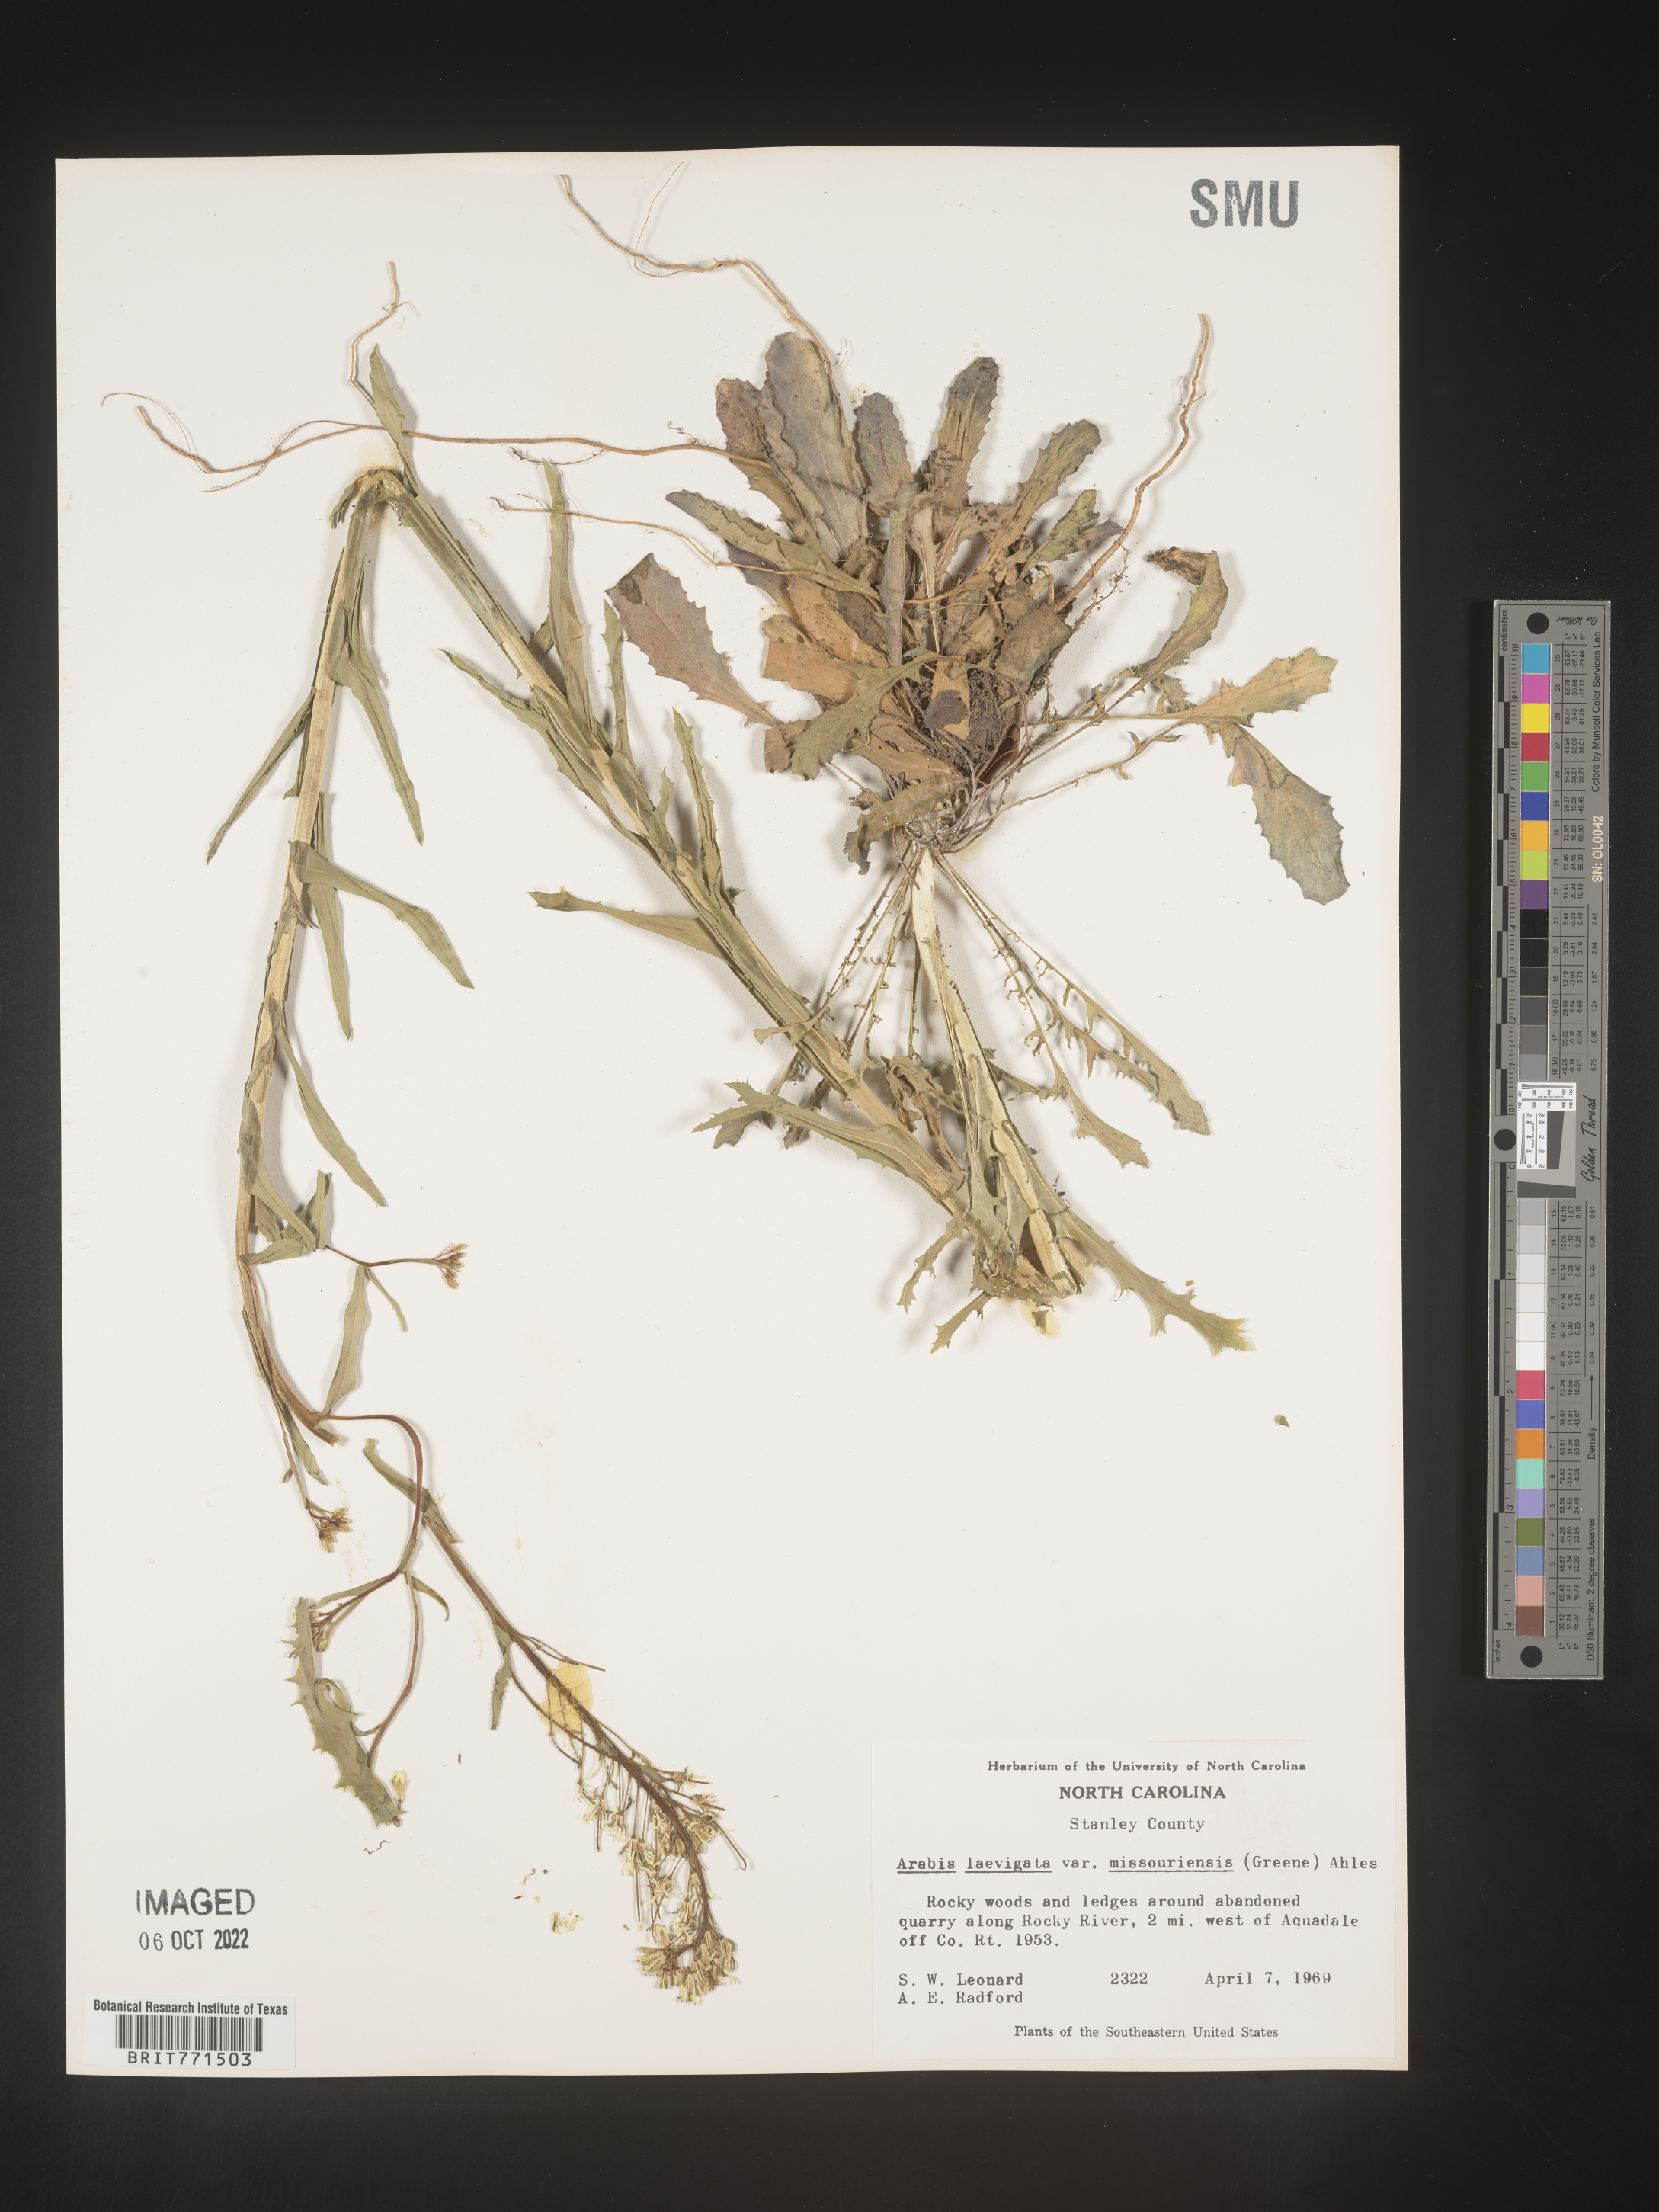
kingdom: Plantae
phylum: Tracheophyta
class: Magnoliopsida
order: Brassicales
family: Brassicaceae
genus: Arabis
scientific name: Arabis laevigata
